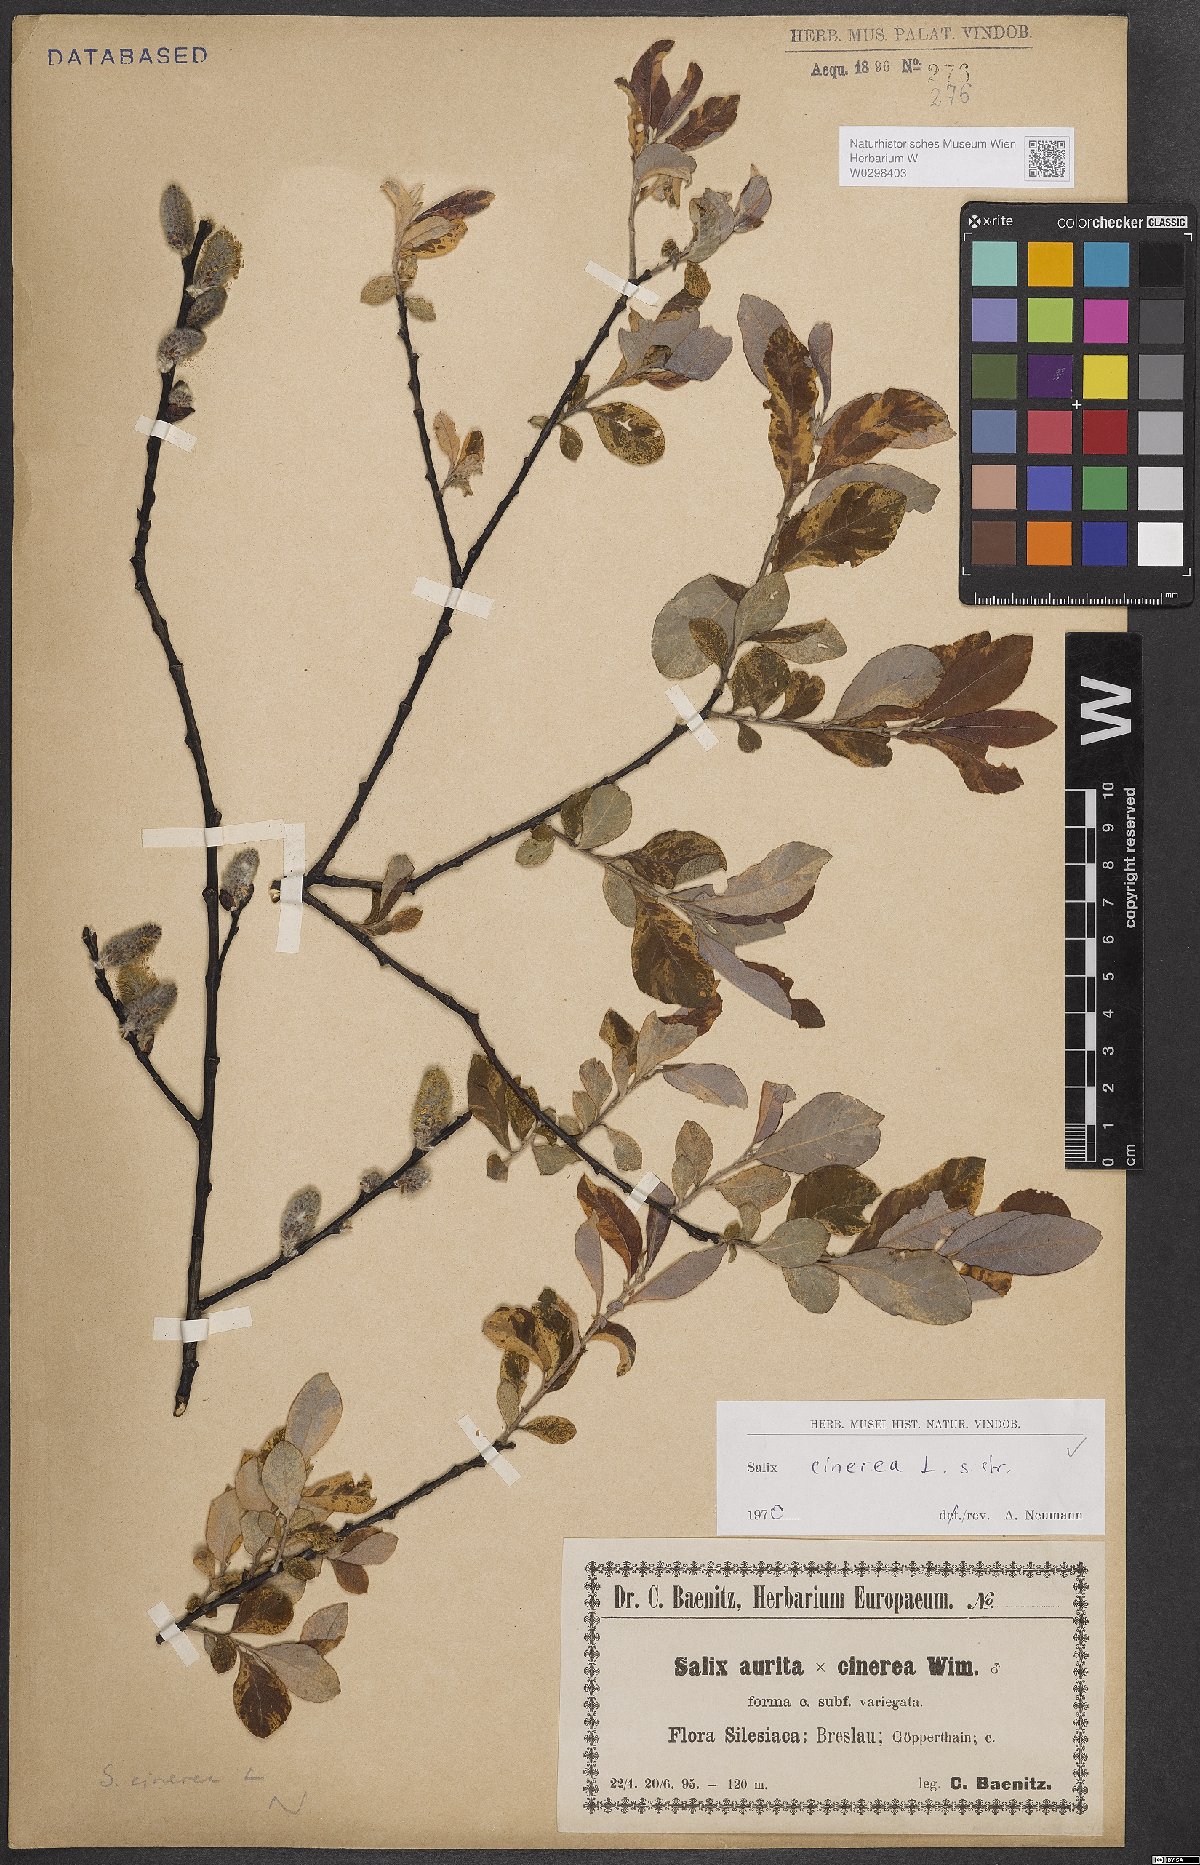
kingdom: Plantae
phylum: Tracheophyta
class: Magnoliopsida
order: Malpighiales
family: Salicaceae
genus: Salix
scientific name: Salix cinerea
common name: Common sallow
